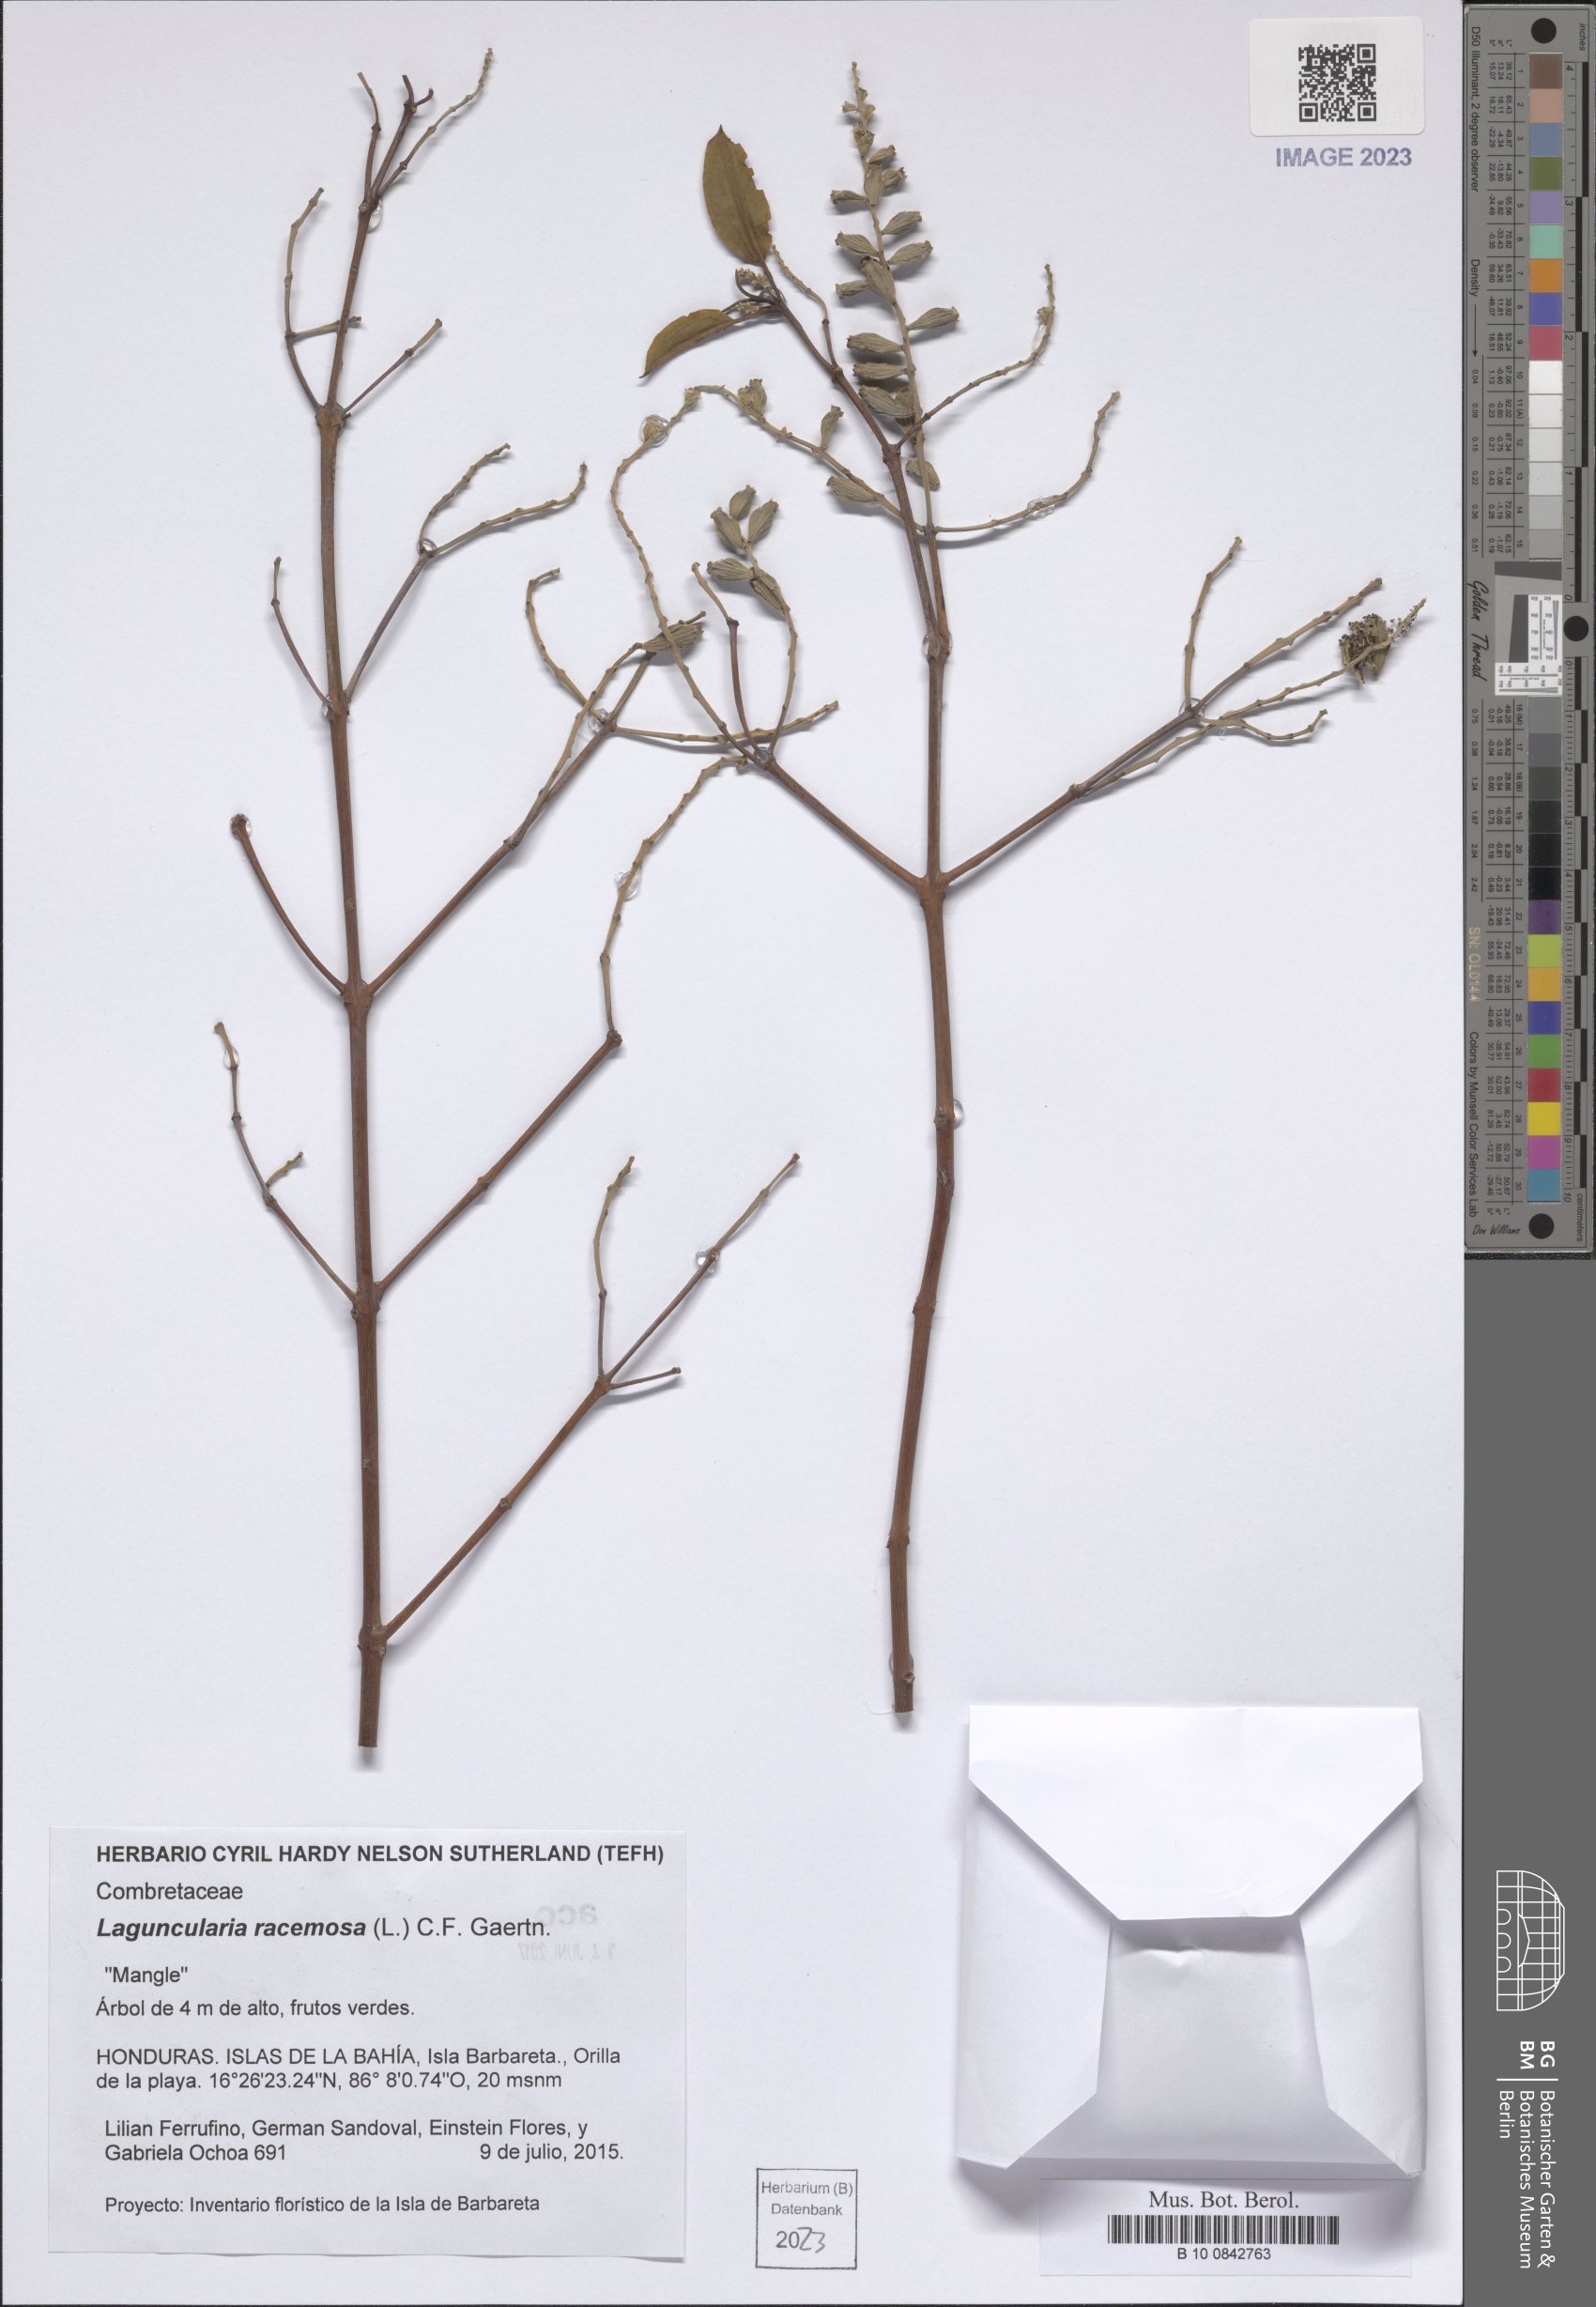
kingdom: Plantae
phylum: Tracheophyta
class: Magnoliopsida
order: Myrtales
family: Combretaceae
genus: Laguncularia
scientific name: Laguncularia racemosa
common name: White mangrove
